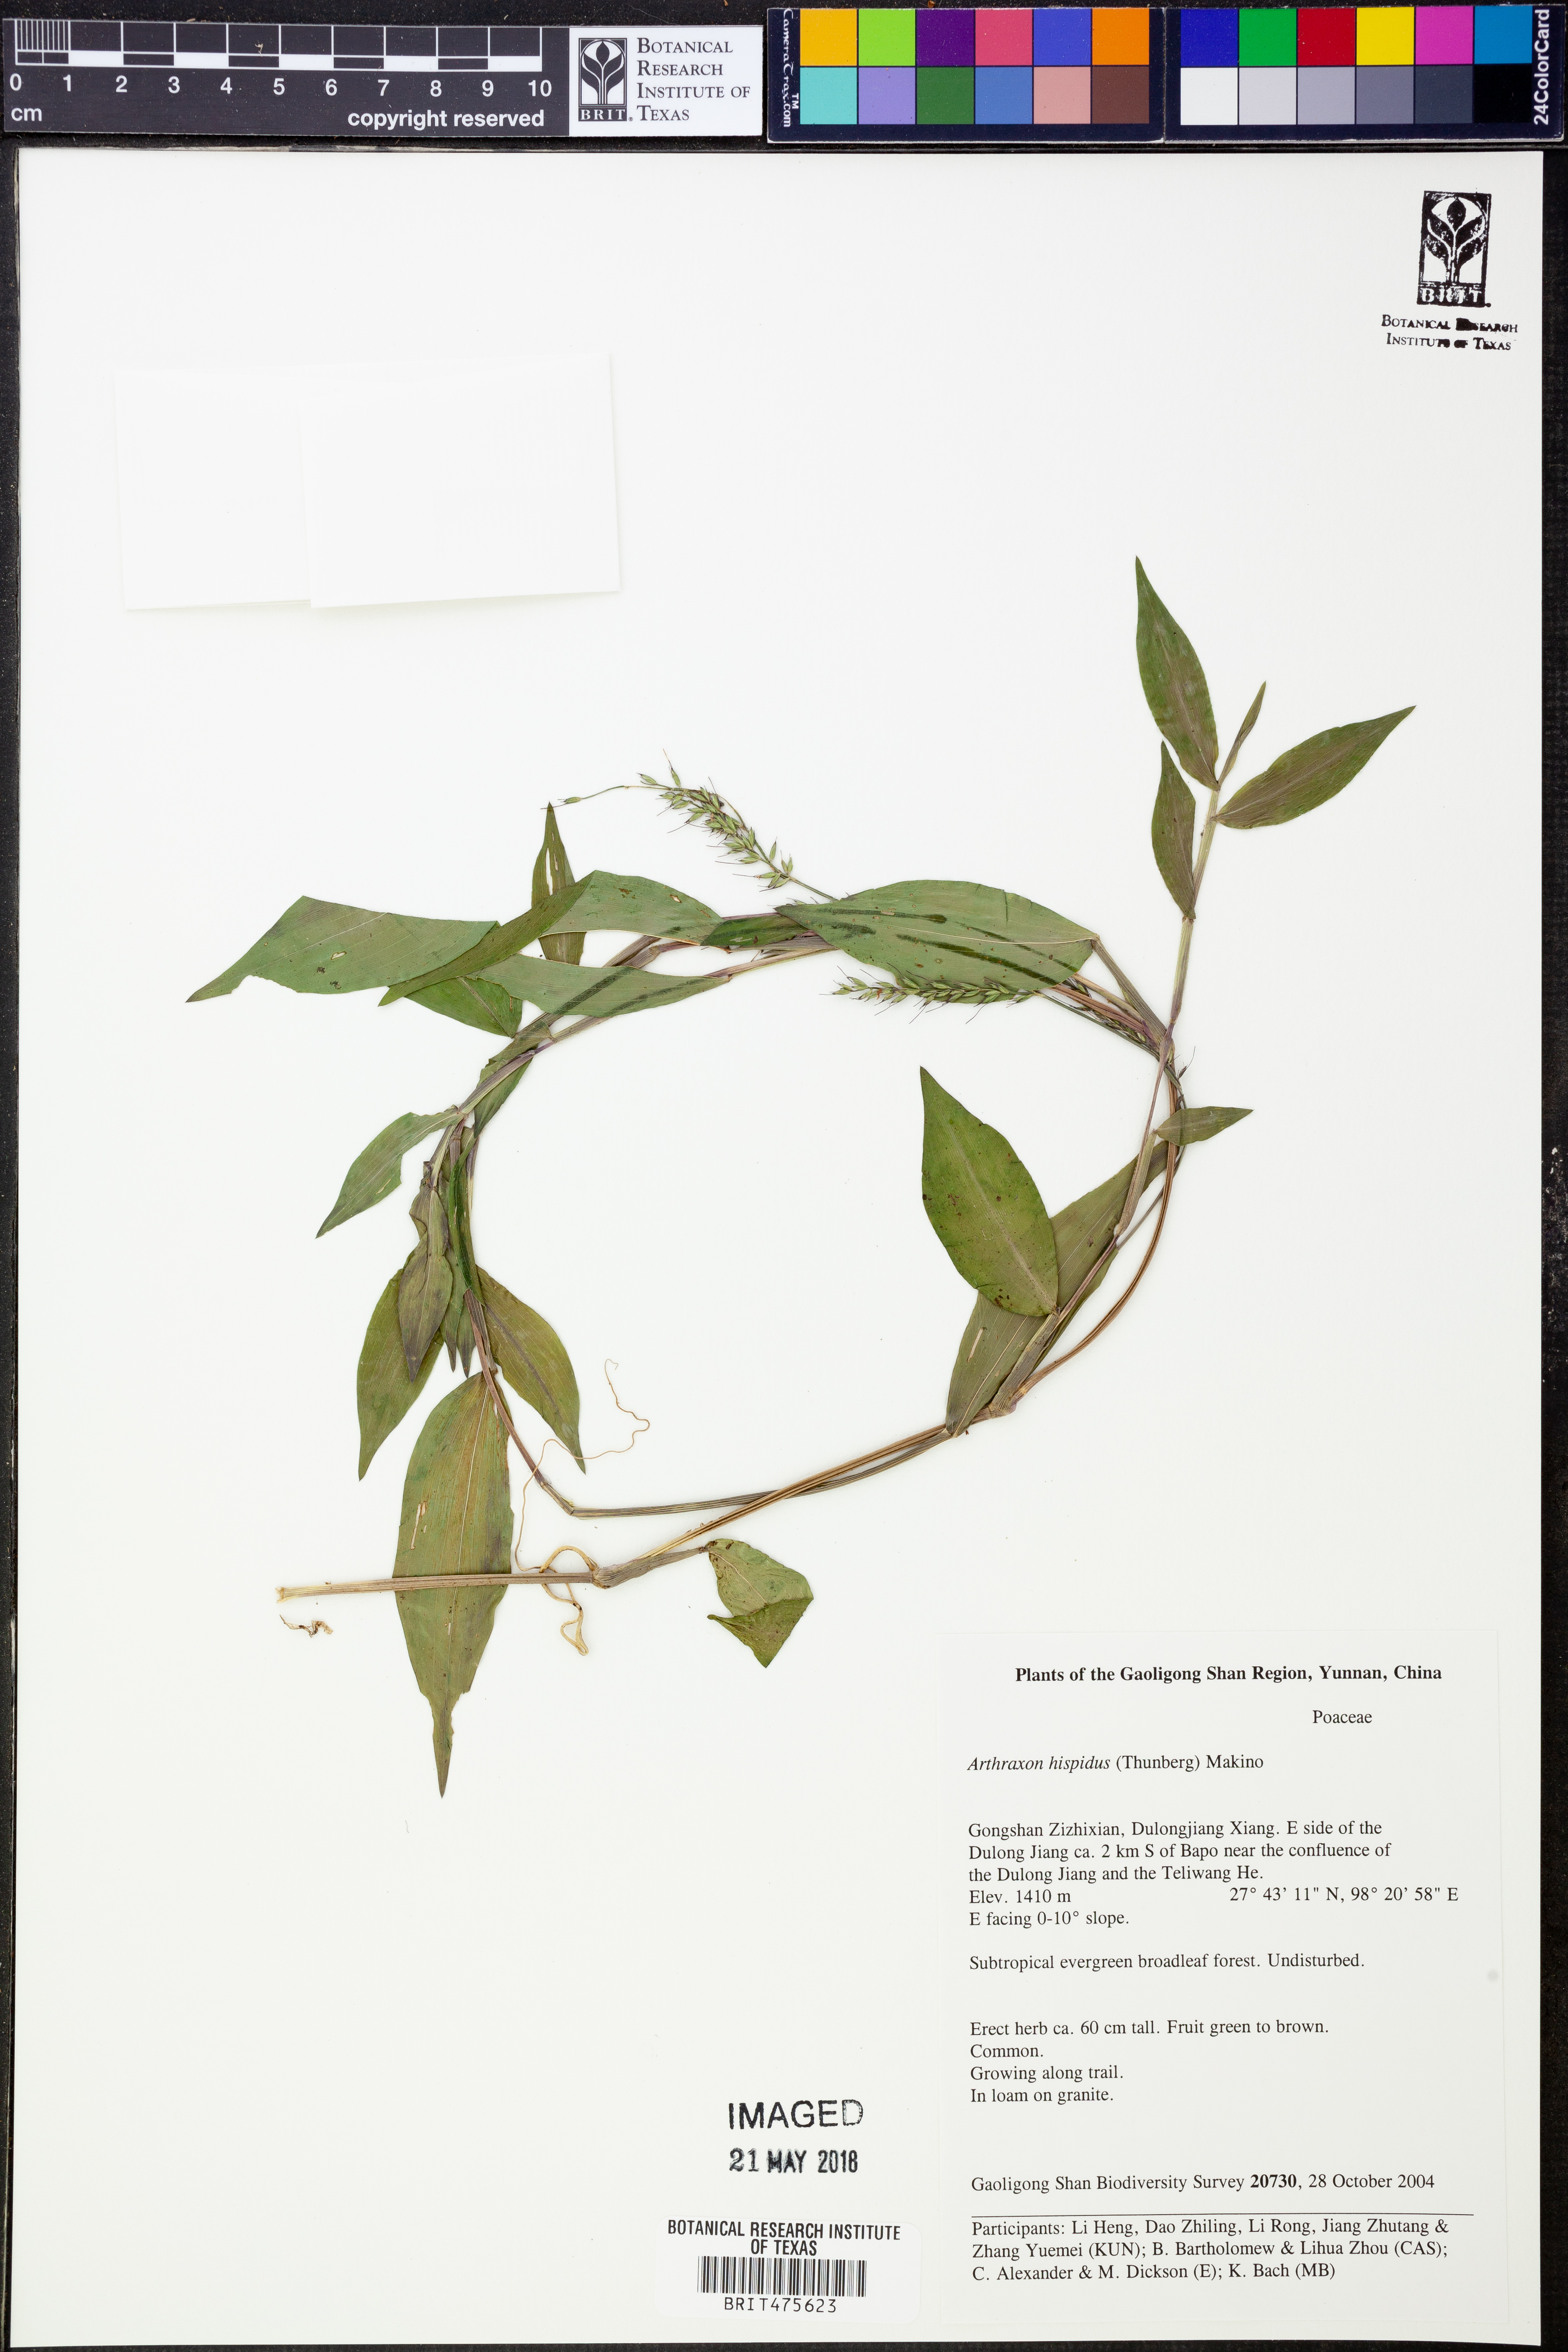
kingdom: Plantae
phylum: Tracheophyta
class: Liliopsida
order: Poales
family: Poaceae
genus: Arthraxon
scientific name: Arthraxon hispidus
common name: Small carpgrass
